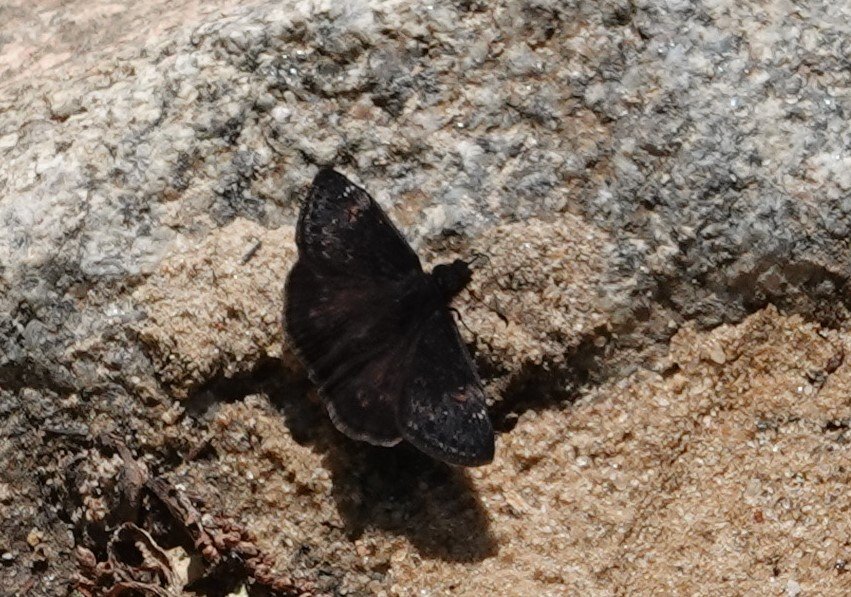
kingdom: Animalia
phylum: Arthropoda
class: Insecta
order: Lepidoptera
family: Hesperiidae
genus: Gesta
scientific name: Gesta
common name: Juvenal's Duskywing
